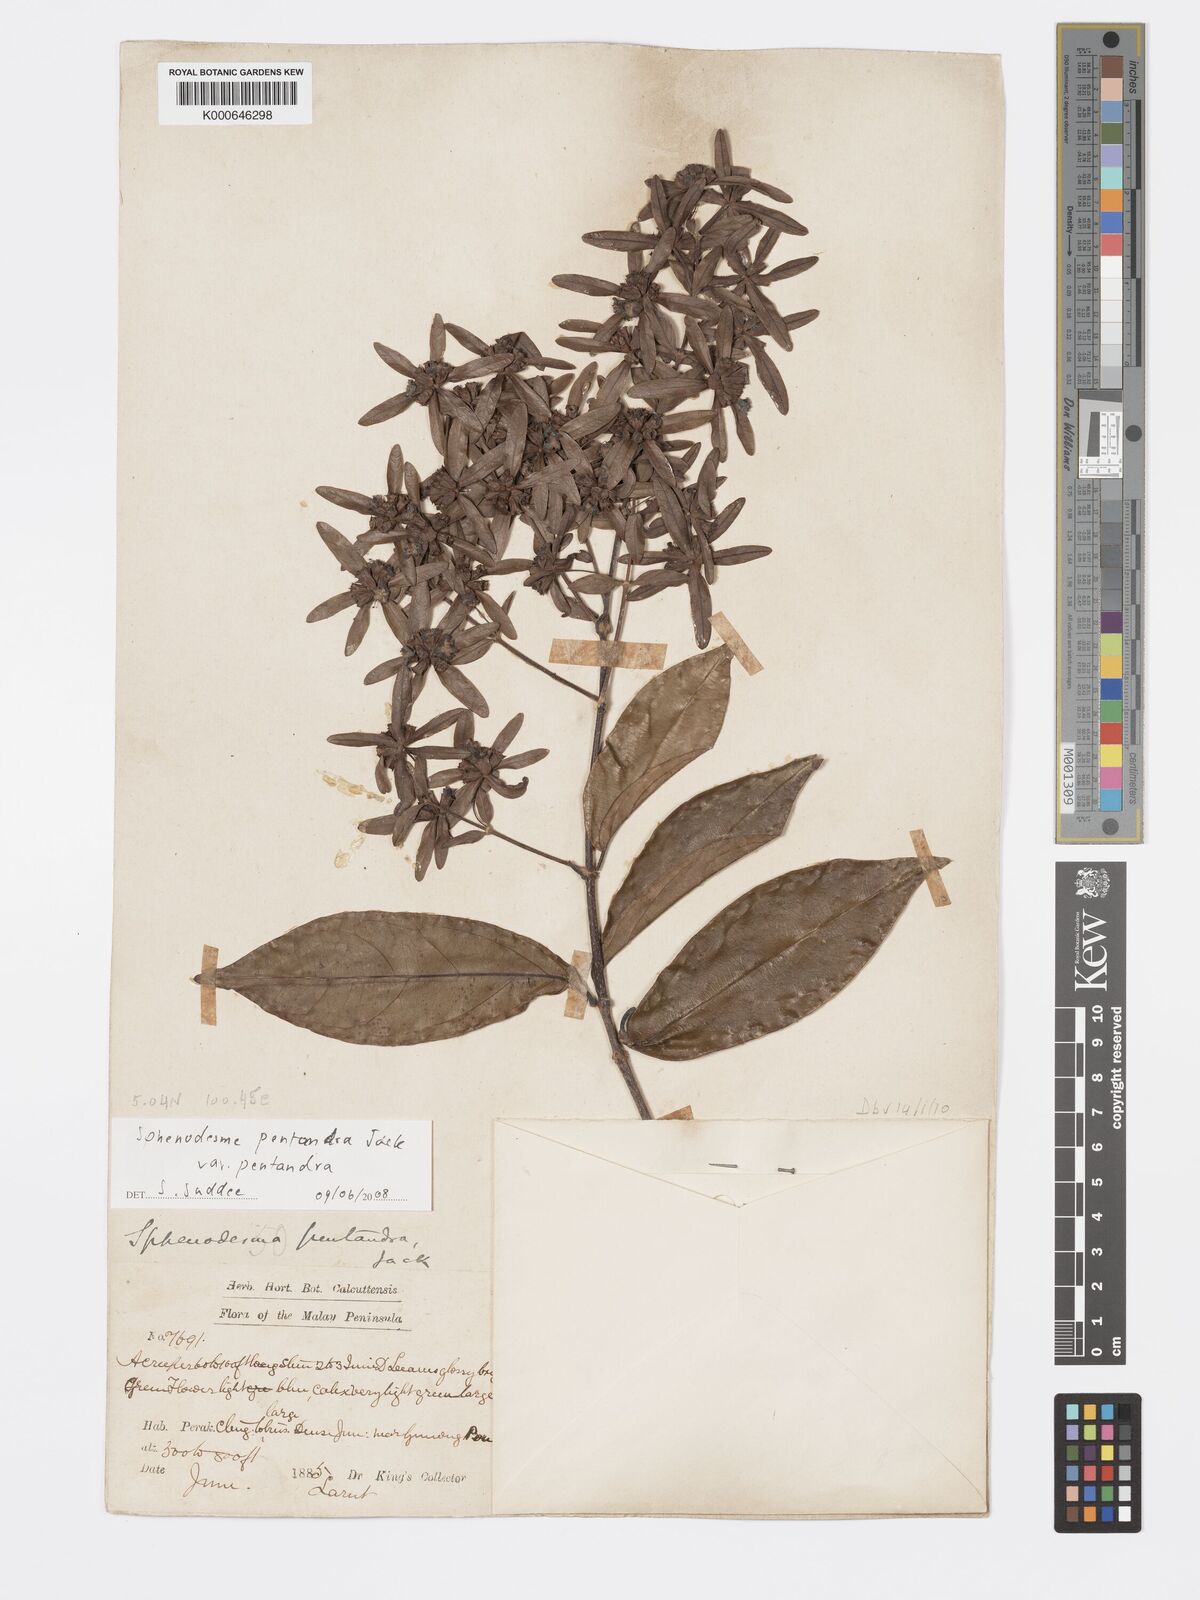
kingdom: Plantae
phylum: Tracheophyta
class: Magnoliopsida
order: Lamiales
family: Lamiaceae
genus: Sphenodesme
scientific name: Sphenodesme pentandra
